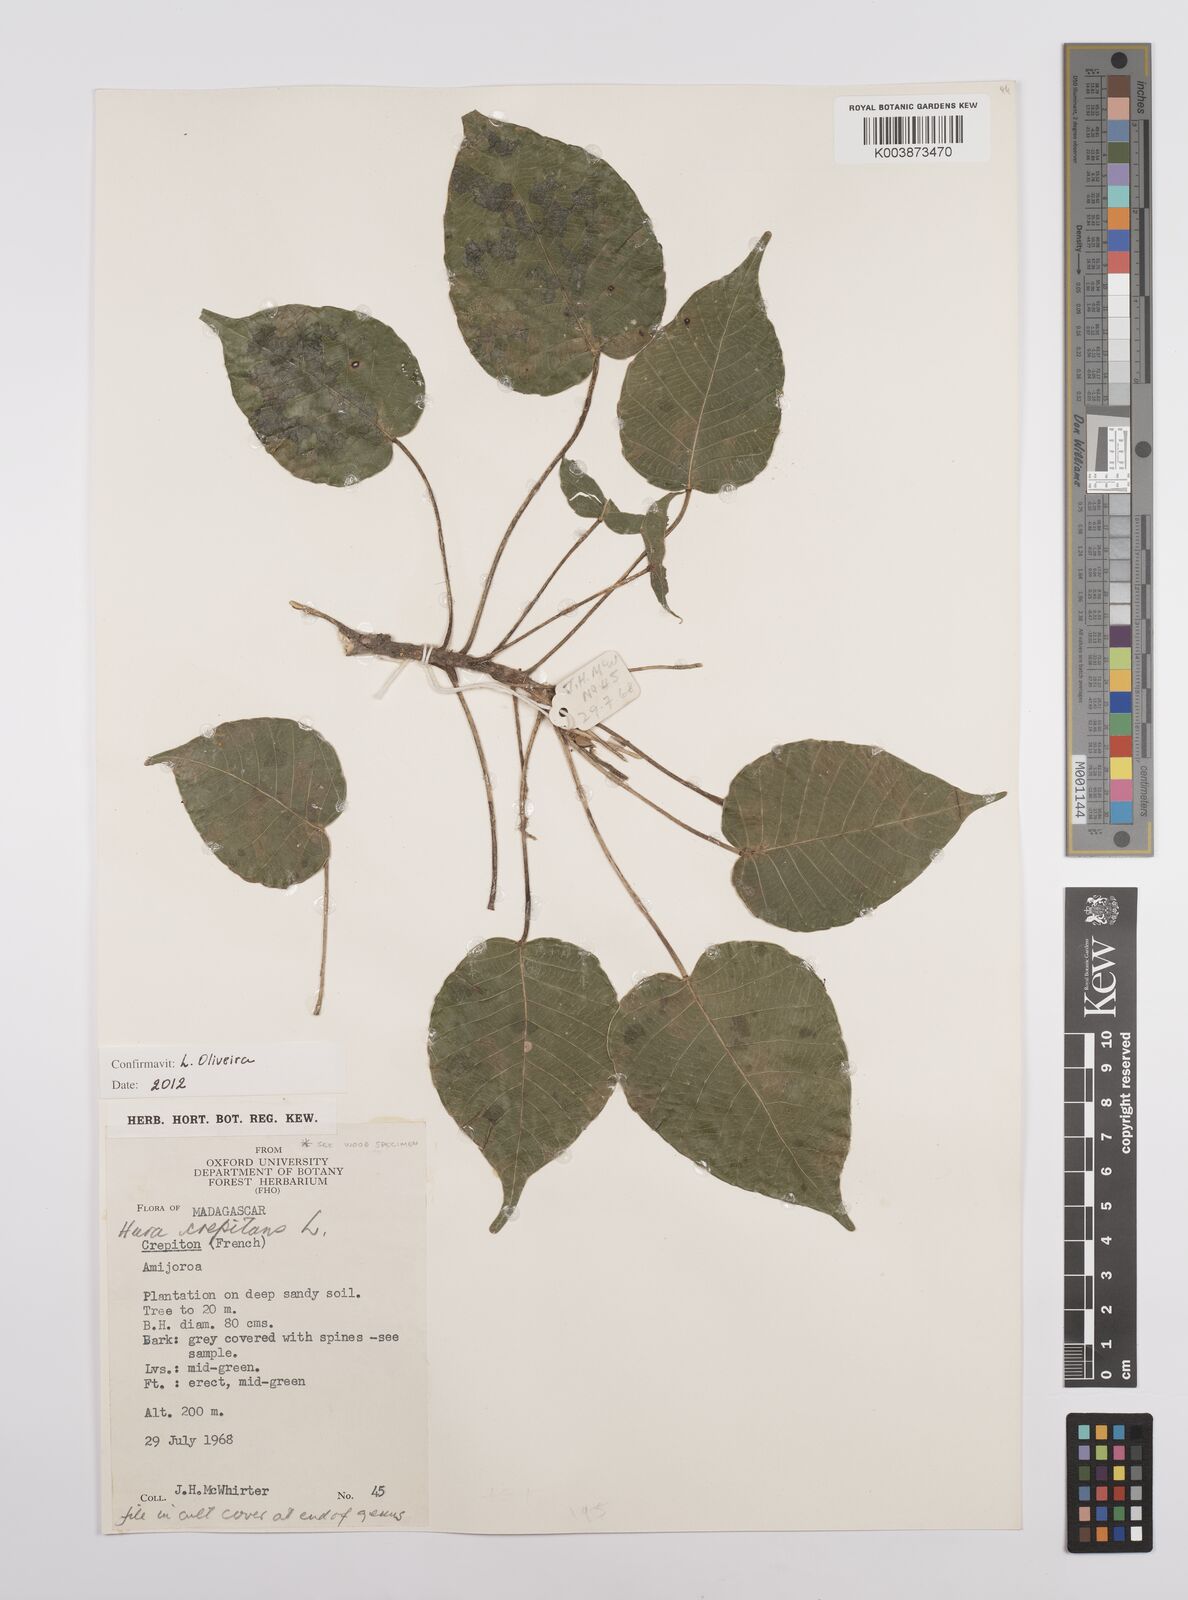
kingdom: Plantae
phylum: Tracheophyta
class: Magnoliopsida
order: Malpighiales
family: Euphorbiaceae
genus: Hura
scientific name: Hura crepitans
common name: Sandboxtree
